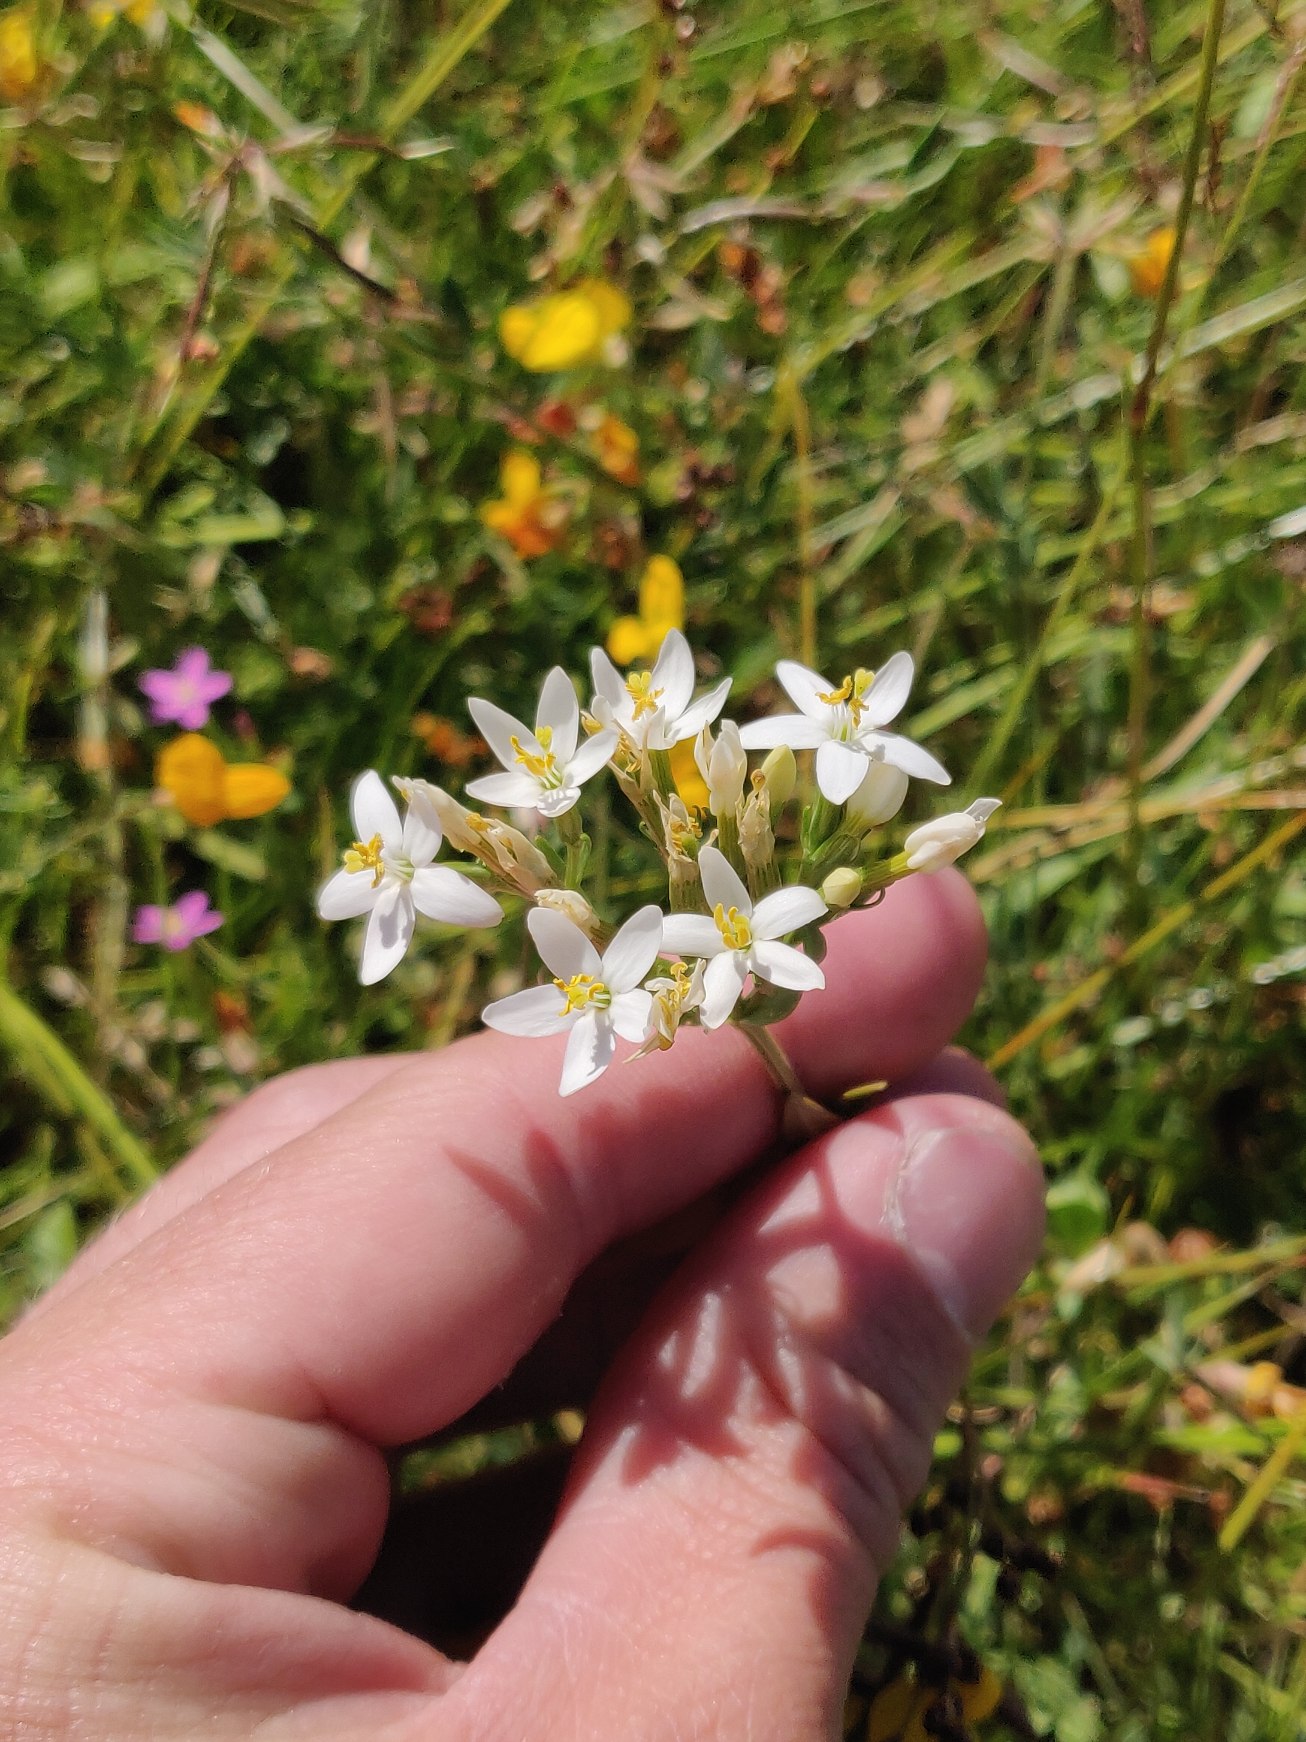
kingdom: Plantae
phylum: Tracheophyta
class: Magnoliopsida
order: Gentianales
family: Gentianaceae
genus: Centaurium
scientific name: Centaurium erythraea
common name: Mark-tusindgylden
